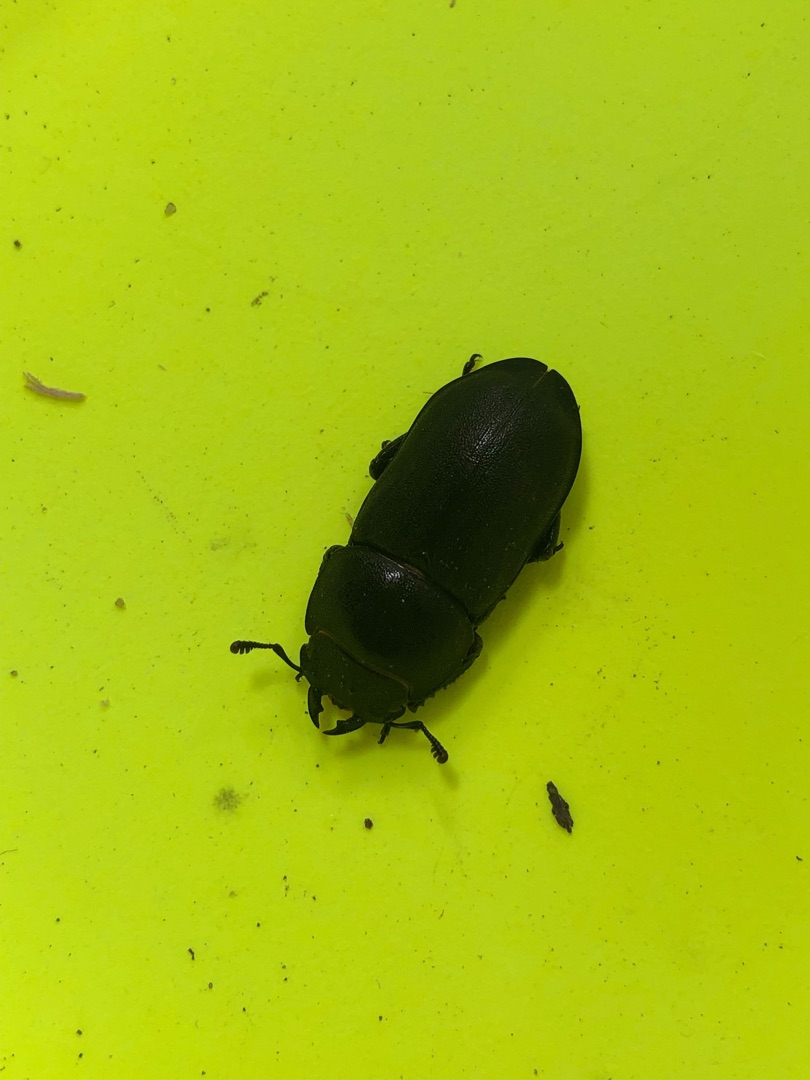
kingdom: Animalia
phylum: Arthropoda
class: Insecta
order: Coleoptera
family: Lucanidae
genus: Dorcus
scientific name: Dorcus parallelipipedus
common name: Bøghjort
